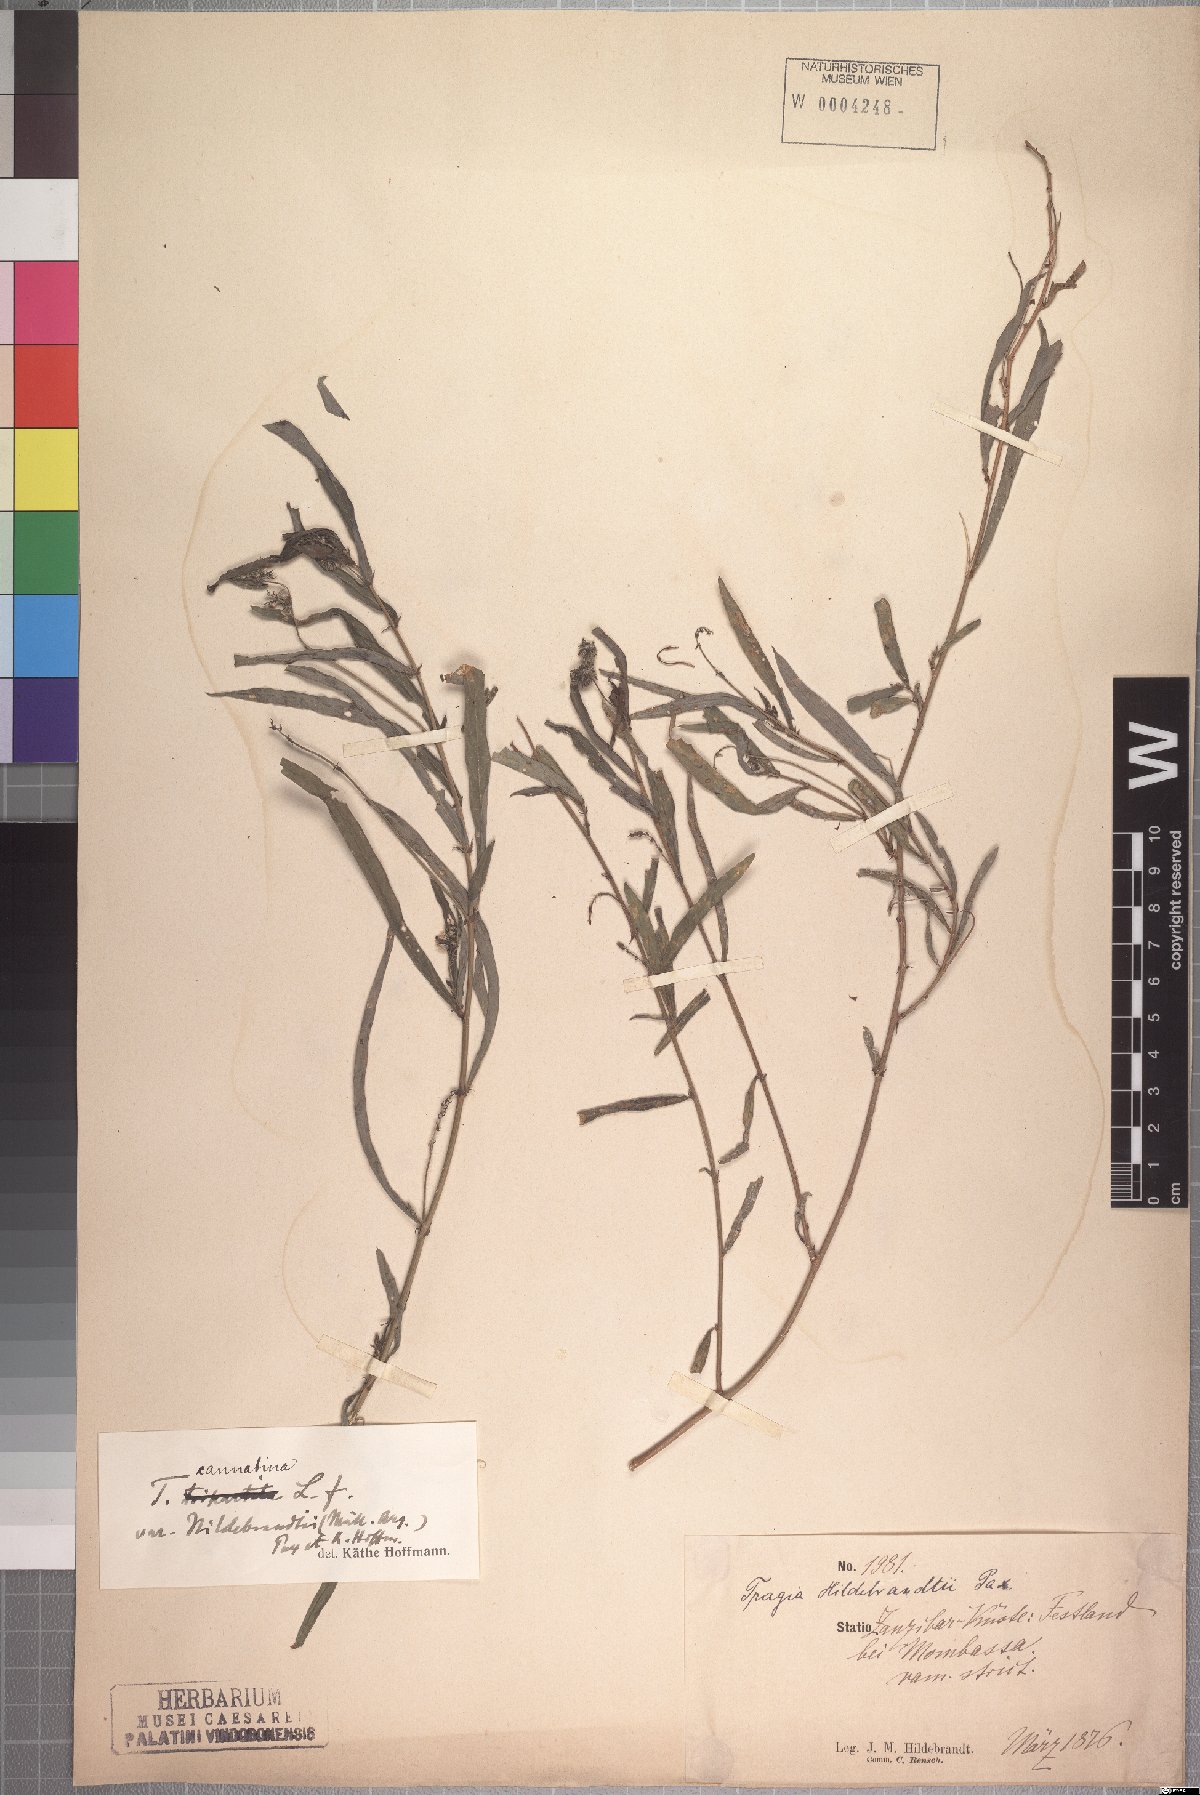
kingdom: Plantae
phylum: Tracheophyta
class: Magnoliopsida
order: Malpighiales
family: Euphorbiaceae
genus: Tragia
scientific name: Tragia hildebrandtii
